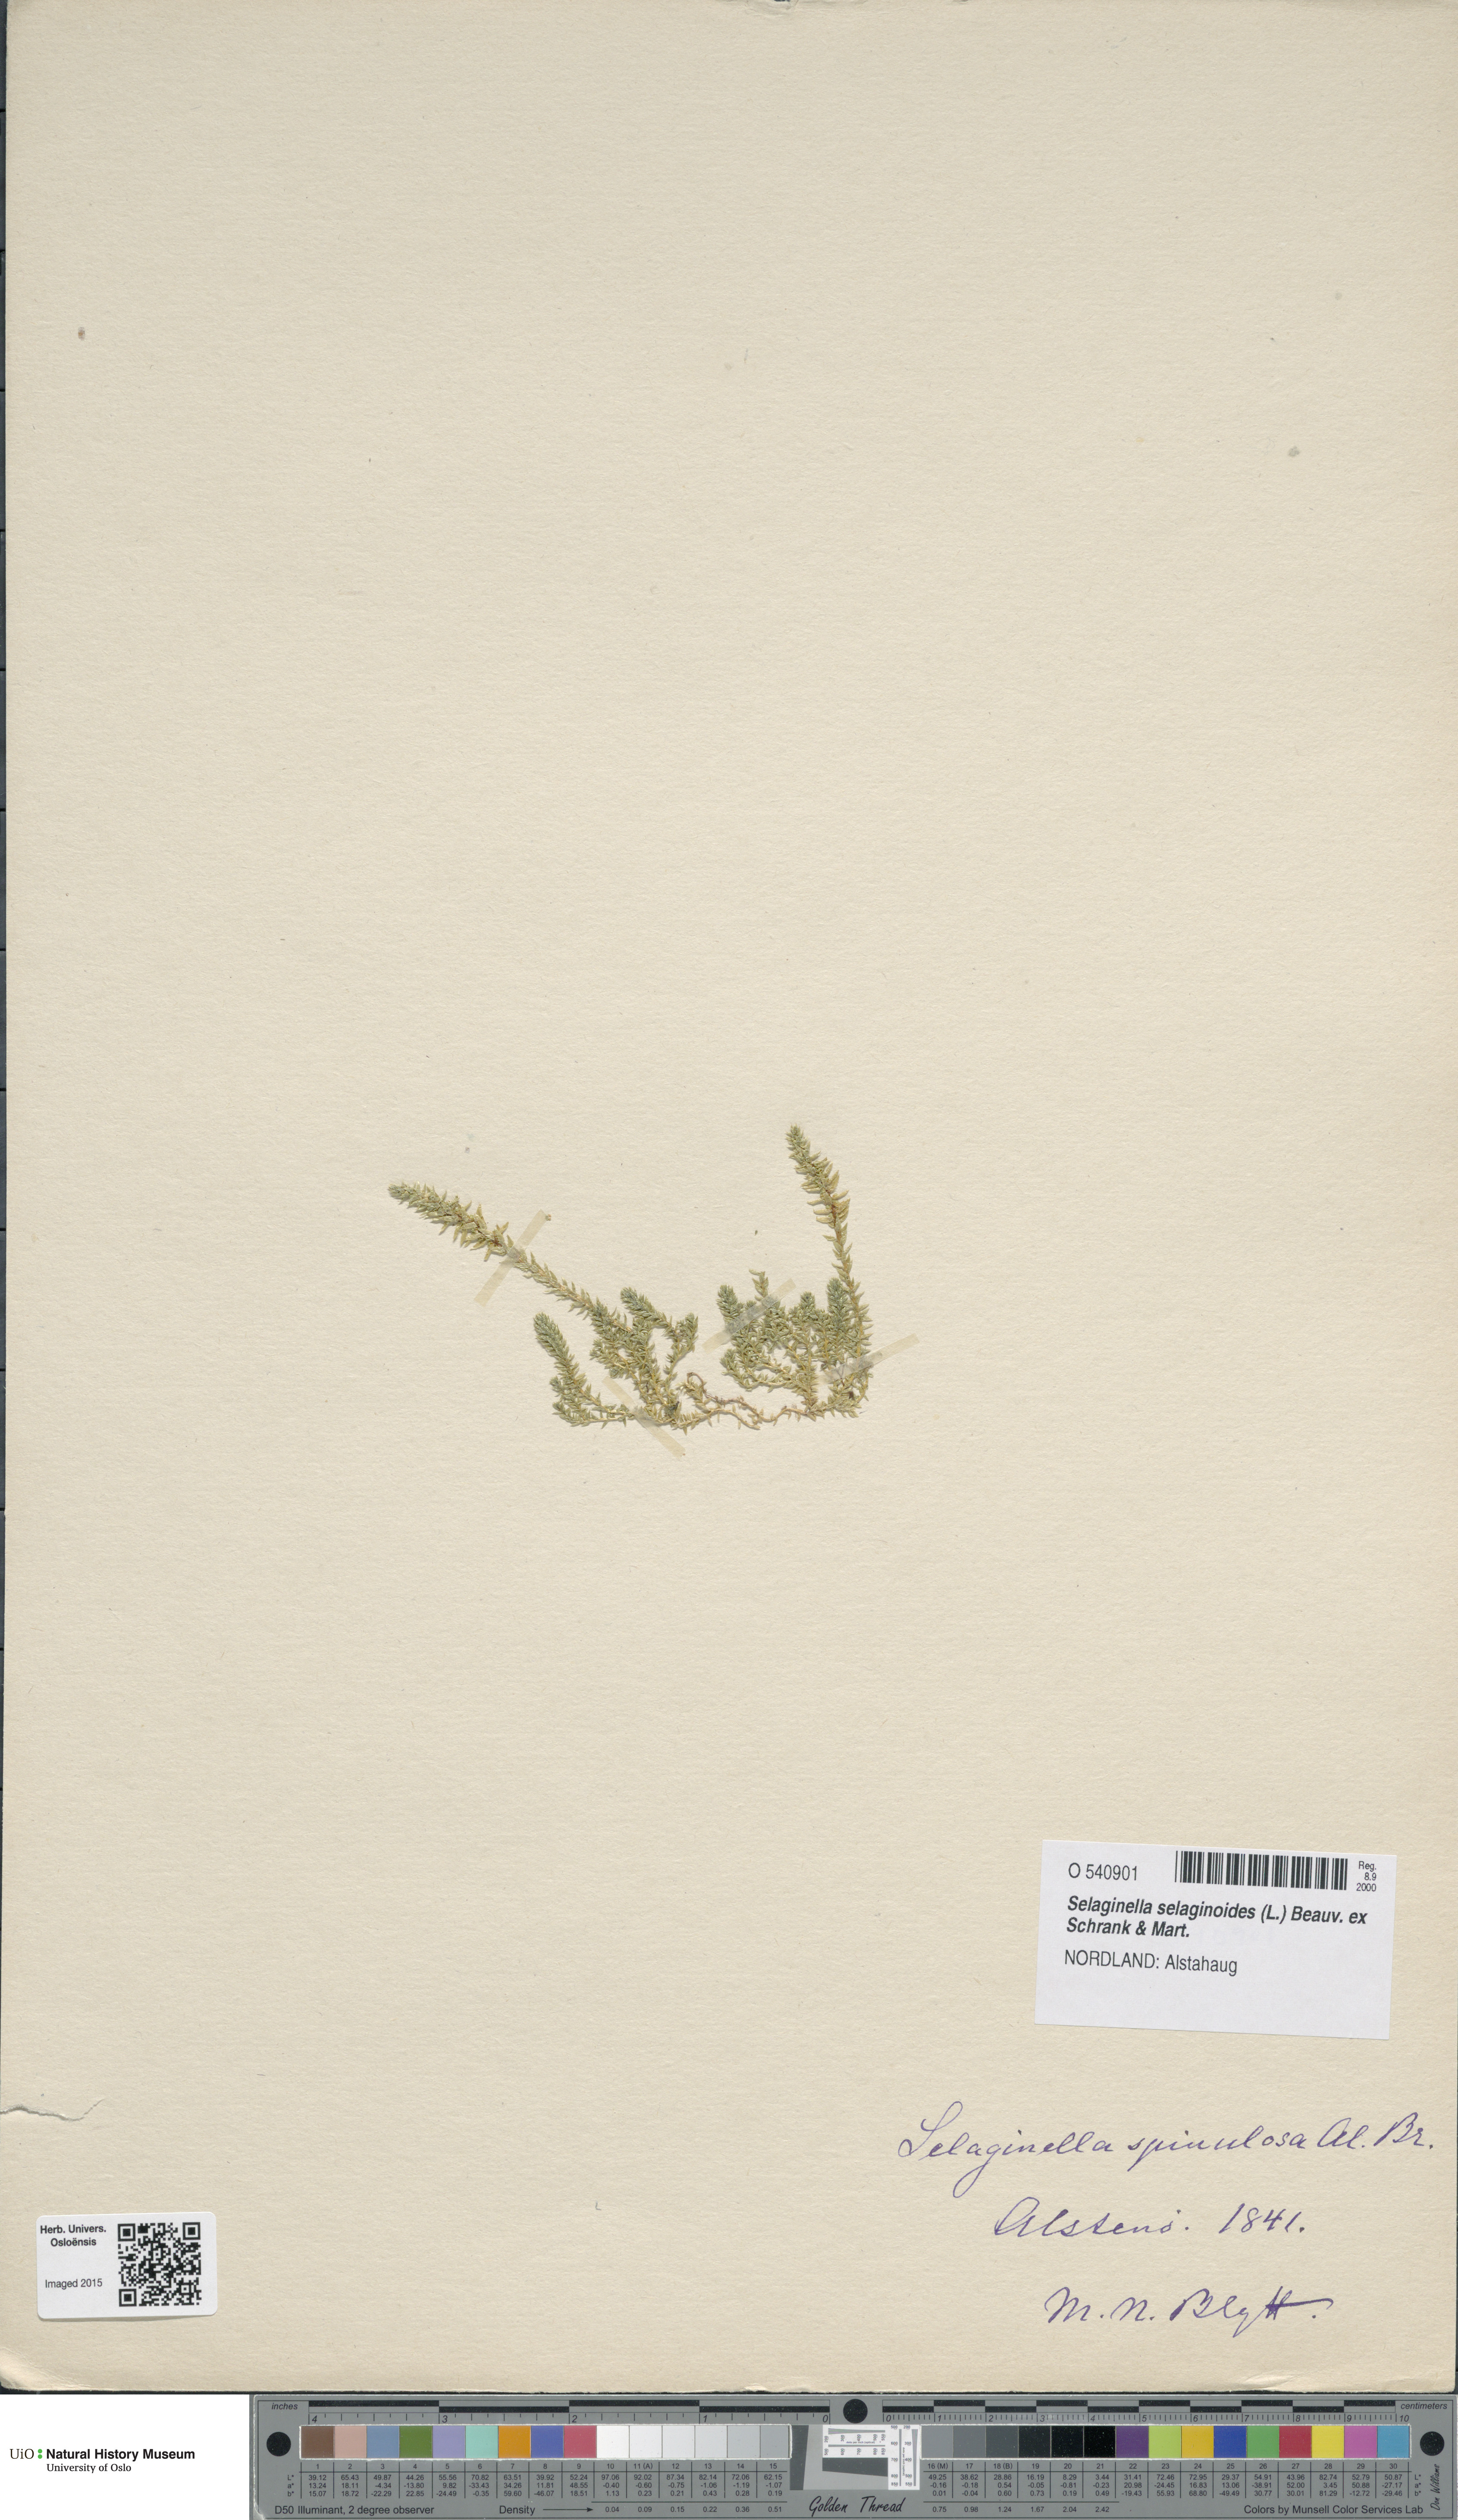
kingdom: Plantae
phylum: Tracheophyta
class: Lycopodiopsida
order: Selaginellales
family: Selaginellaceae
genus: Selaginella
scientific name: Selaginella selaginoides
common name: Prickly mountain-moss
